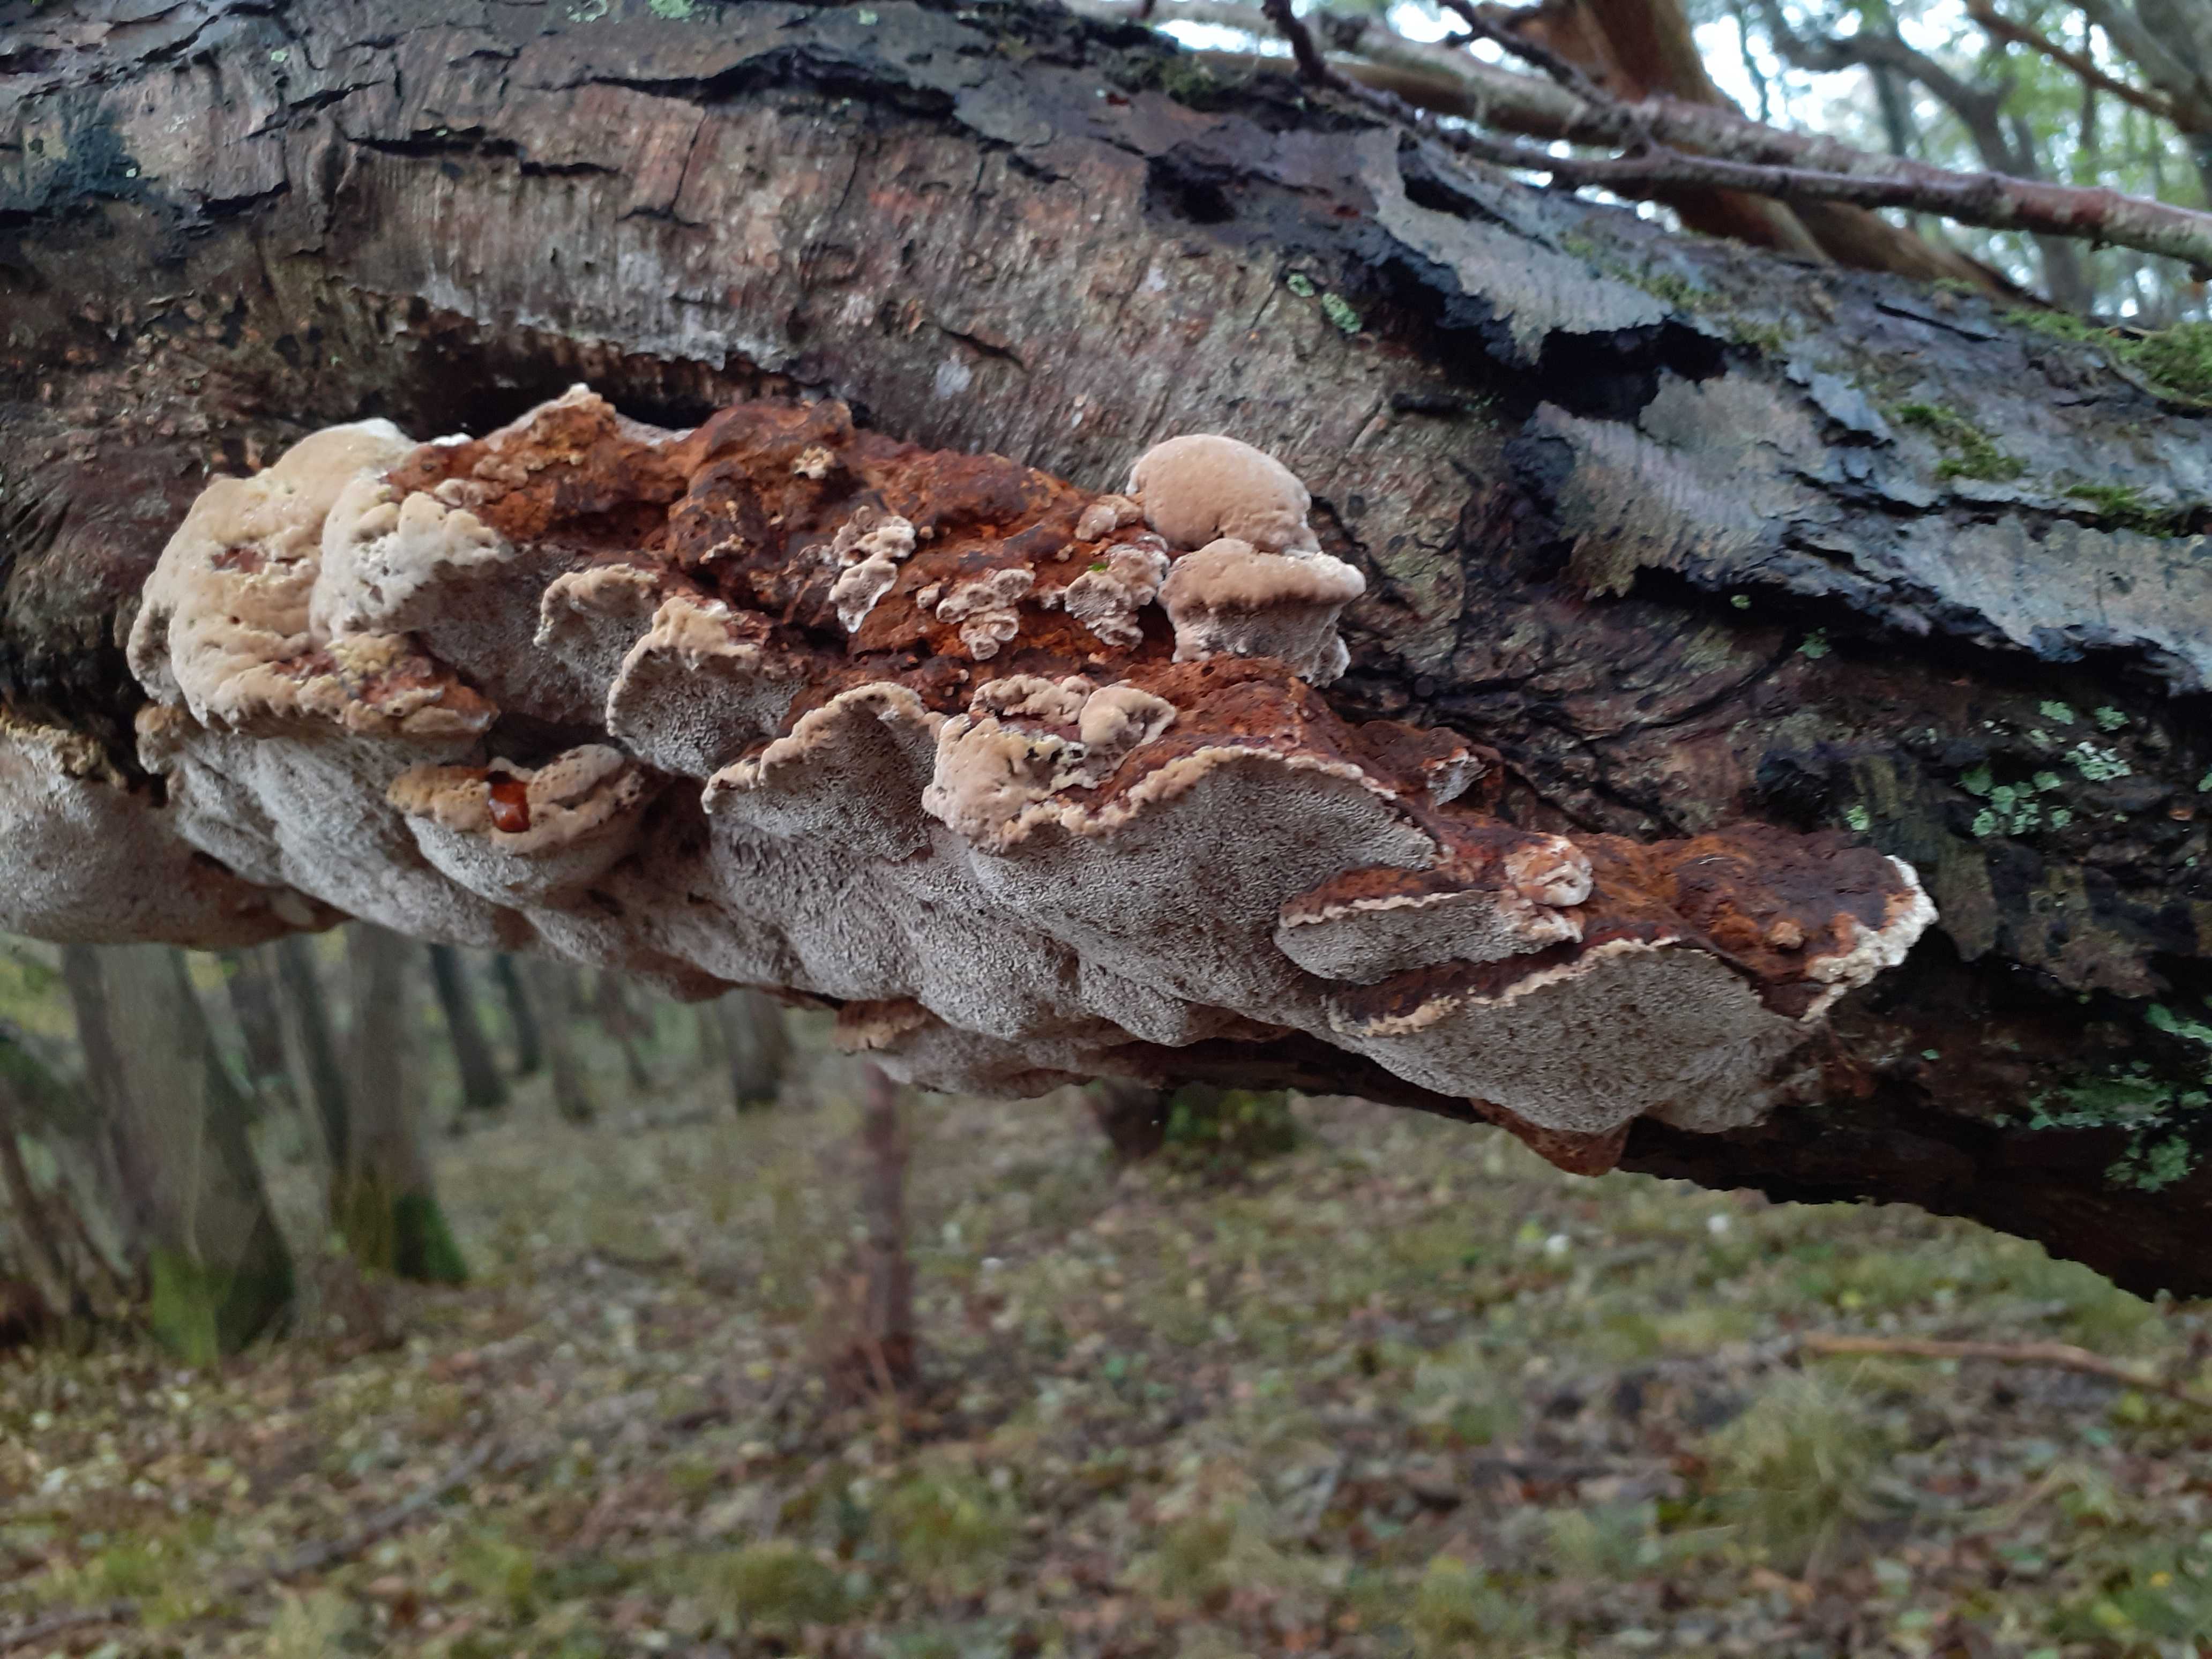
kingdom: Fungi
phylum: Basidiomycota
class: Agaricomycetes
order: Hymenochaetales
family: Hymenochaetaceae
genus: Xanthoporia
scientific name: Xanthoporia radiata
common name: elle-spejlporesvamp
